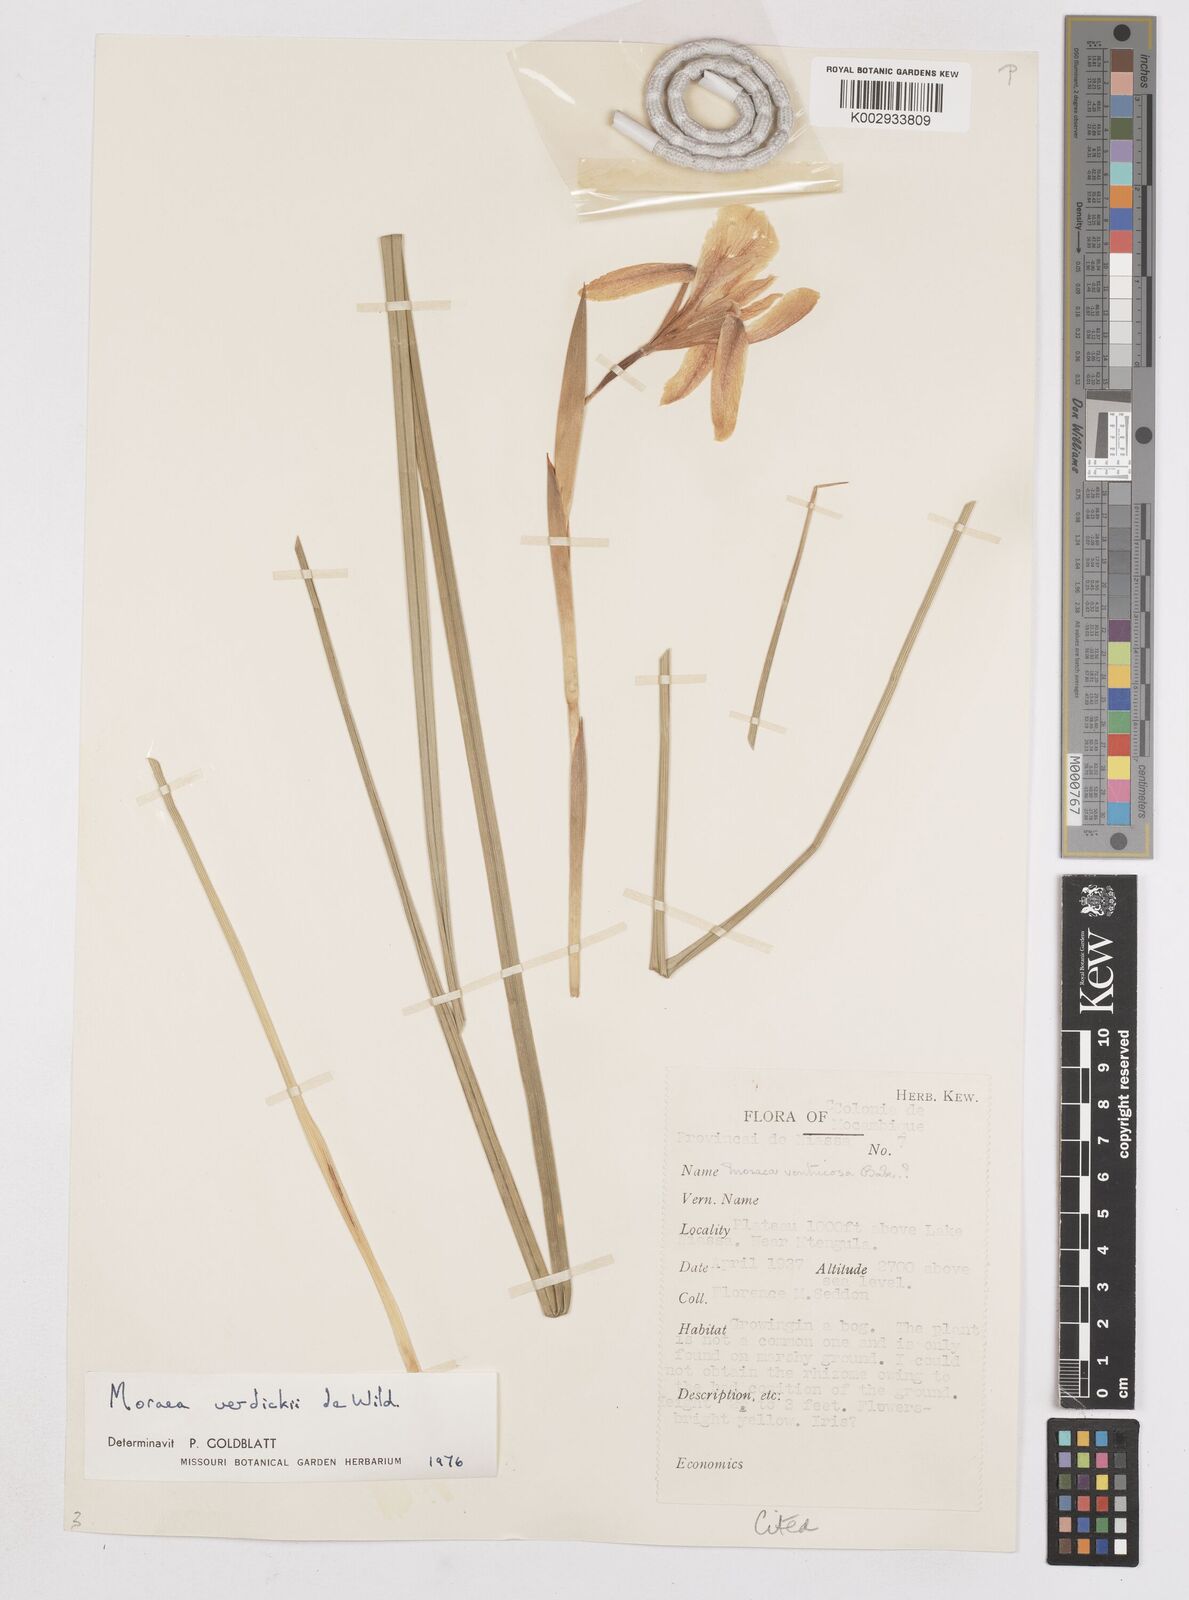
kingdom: Plantae
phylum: Tracheophyta
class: Liliopsida
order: Asparagales
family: Iridaceae
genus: Moraea
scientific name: Moraea verdickii
